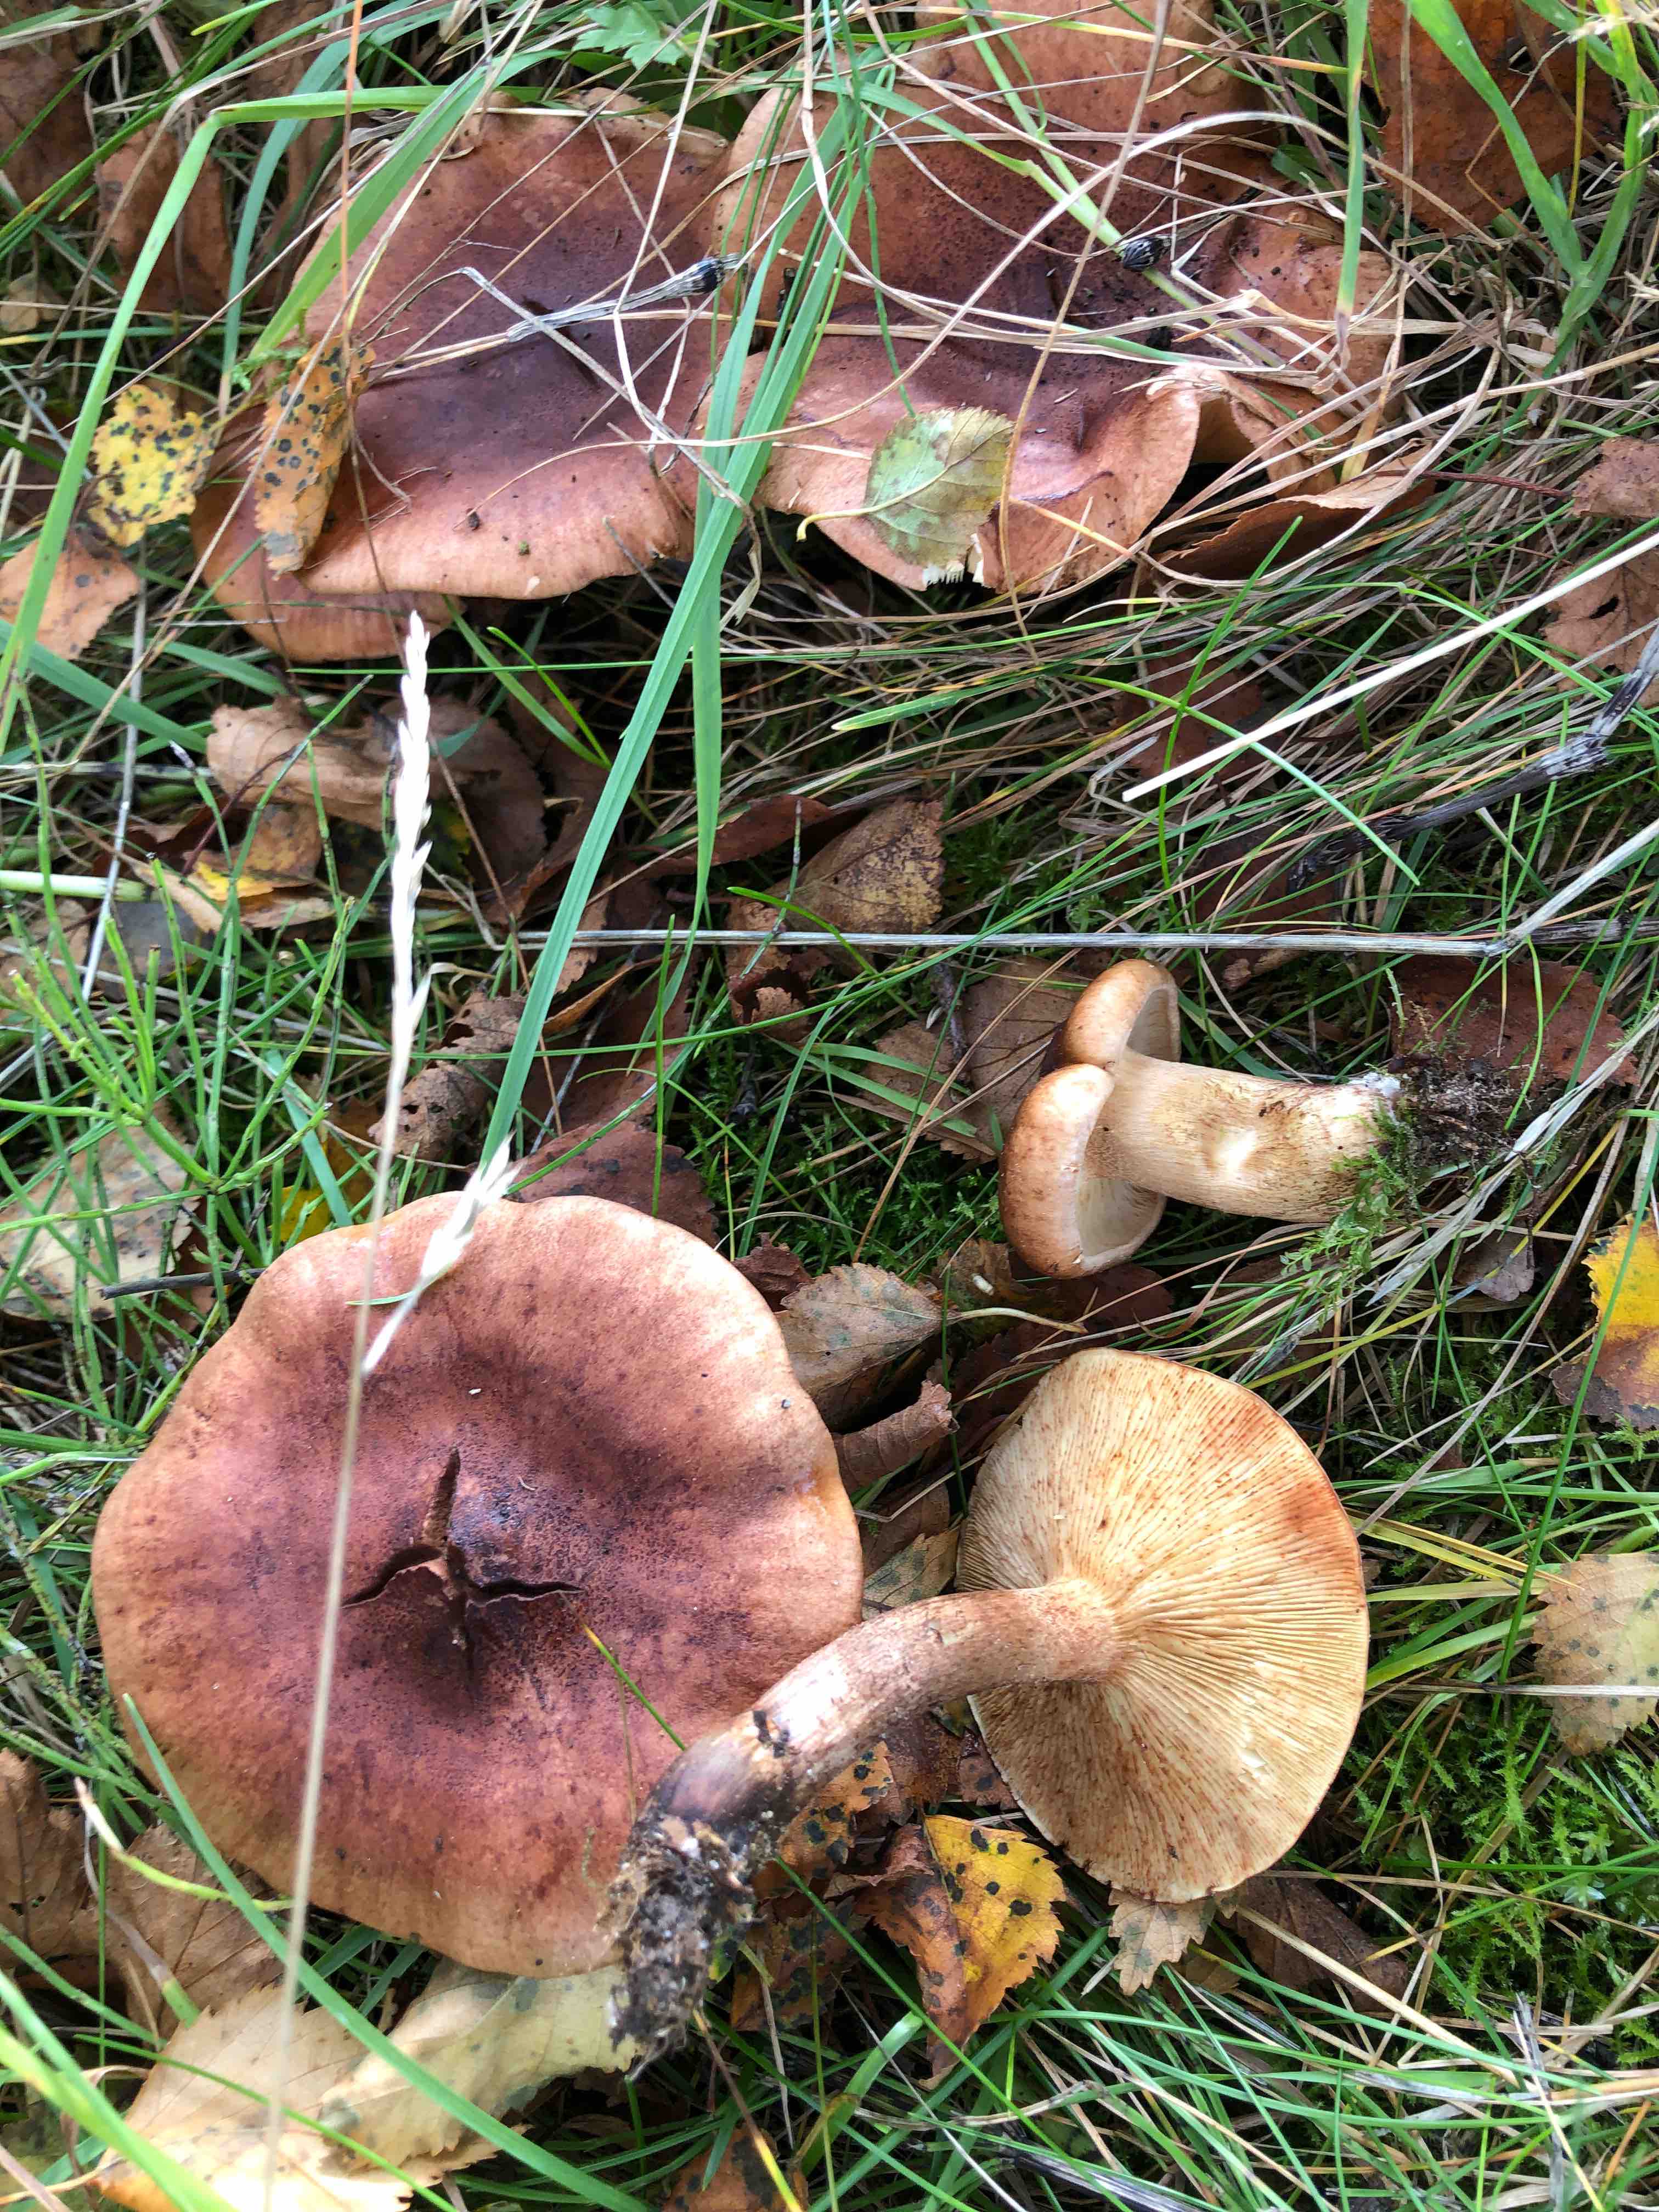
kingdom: Fungi
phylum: Basidiomycota
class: Agaricomycetes
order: Agaricales
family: Tricholomataceae
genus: Tricholoma
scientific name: Tricholoma fulvum
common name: birke-ridderhat
